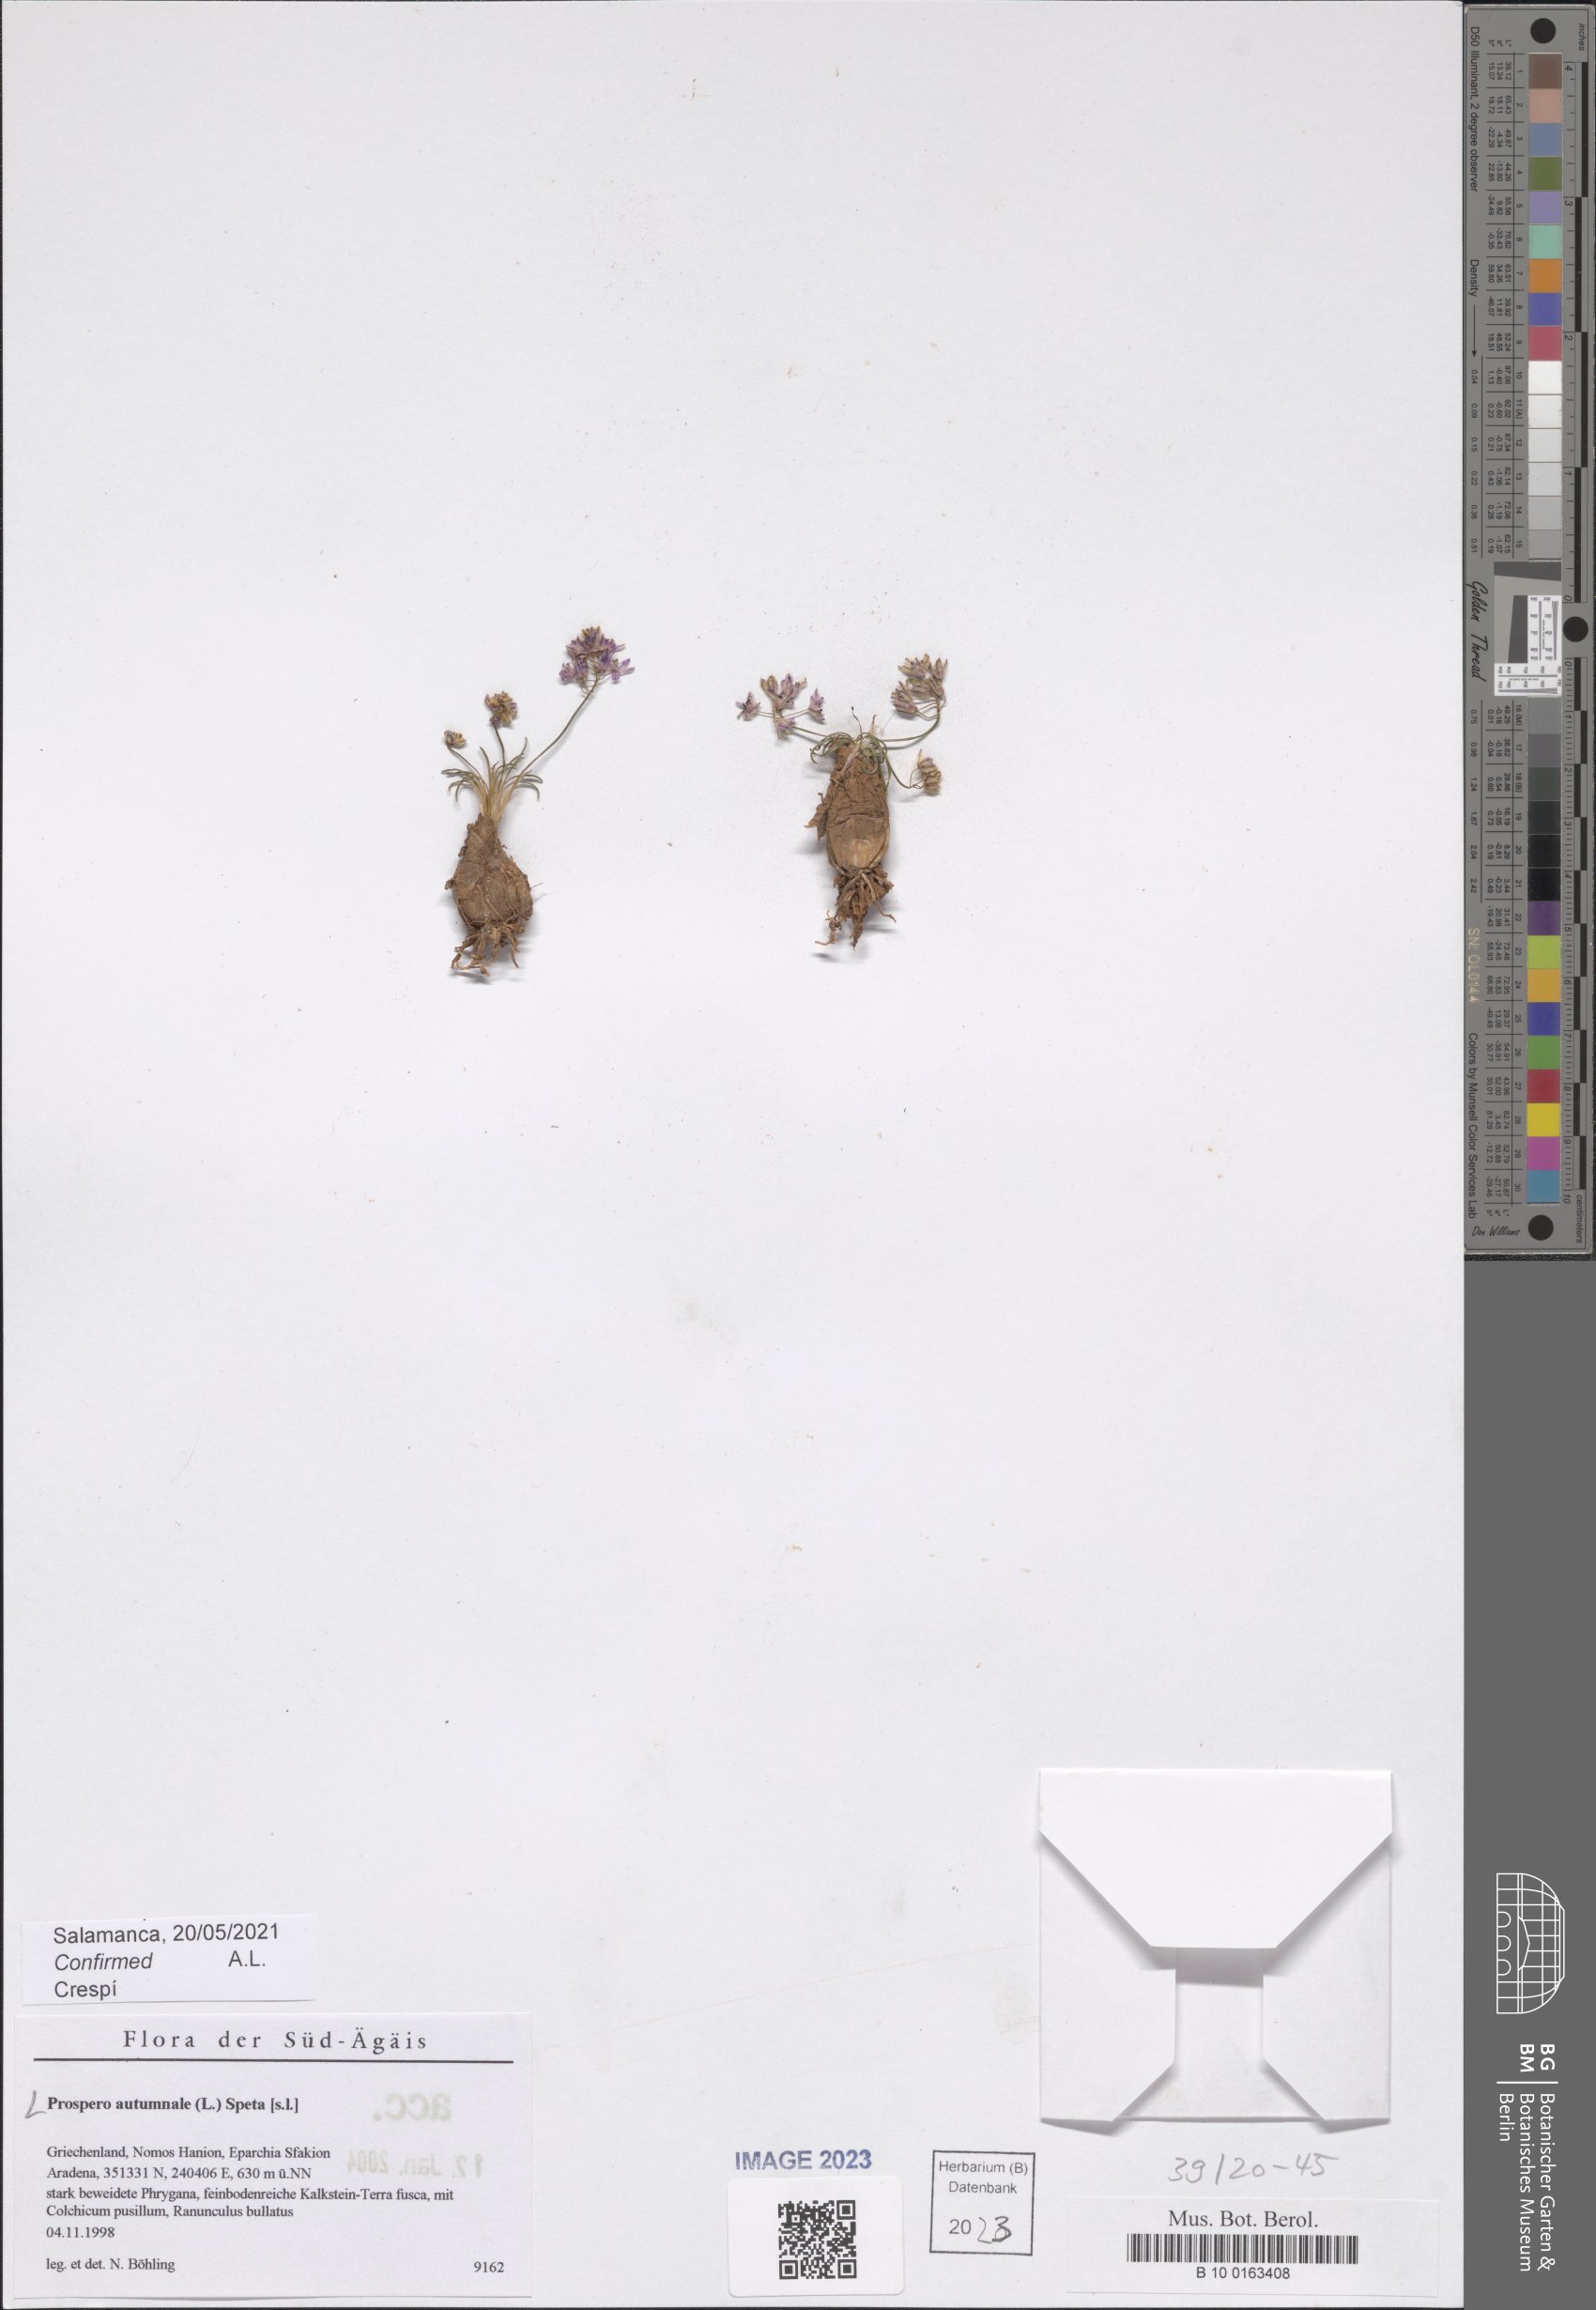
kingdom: Plantae
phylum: Tracheophyta
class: Liliopsida
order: Asparagales
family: Asparagaceae
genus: Prospero
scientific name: Prospero autumnale
